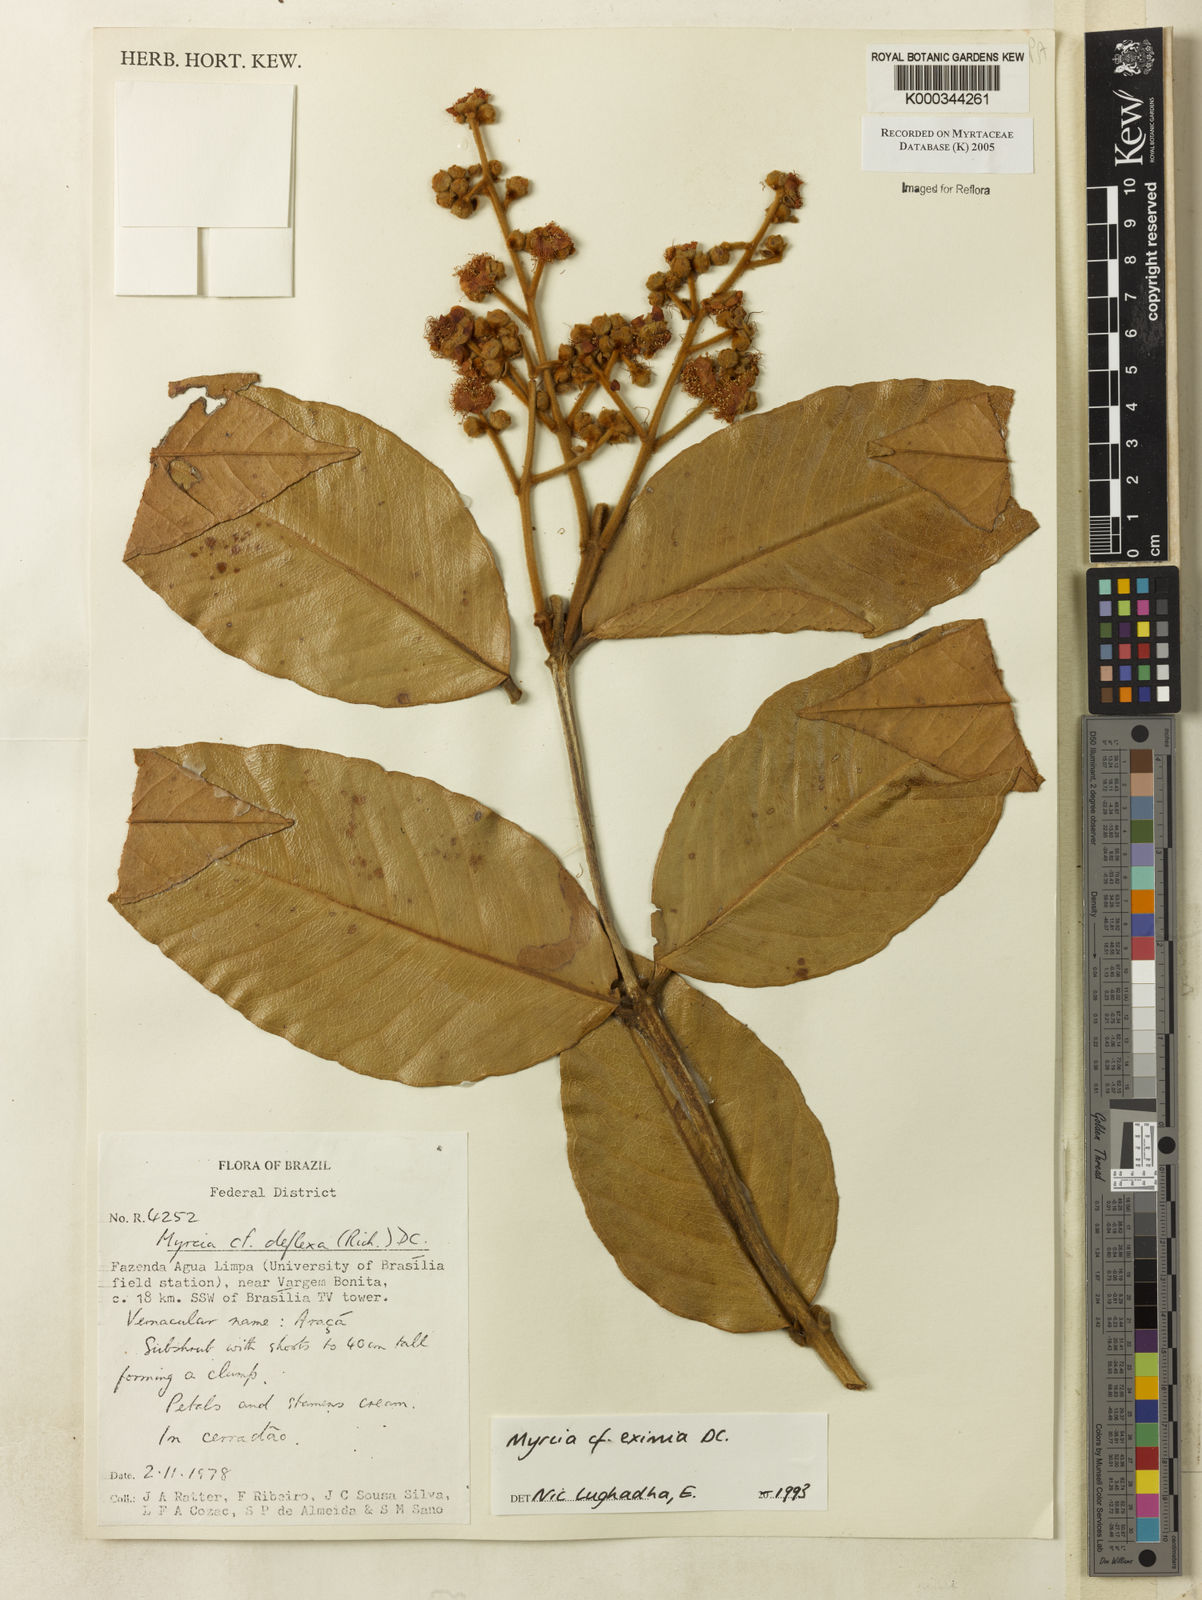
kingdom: Plantae
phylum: Tracheophyta
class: Magnoliopsida
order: Myrtales
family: Myrtaceae
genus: Myrcia
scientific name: Myrcia eximia
